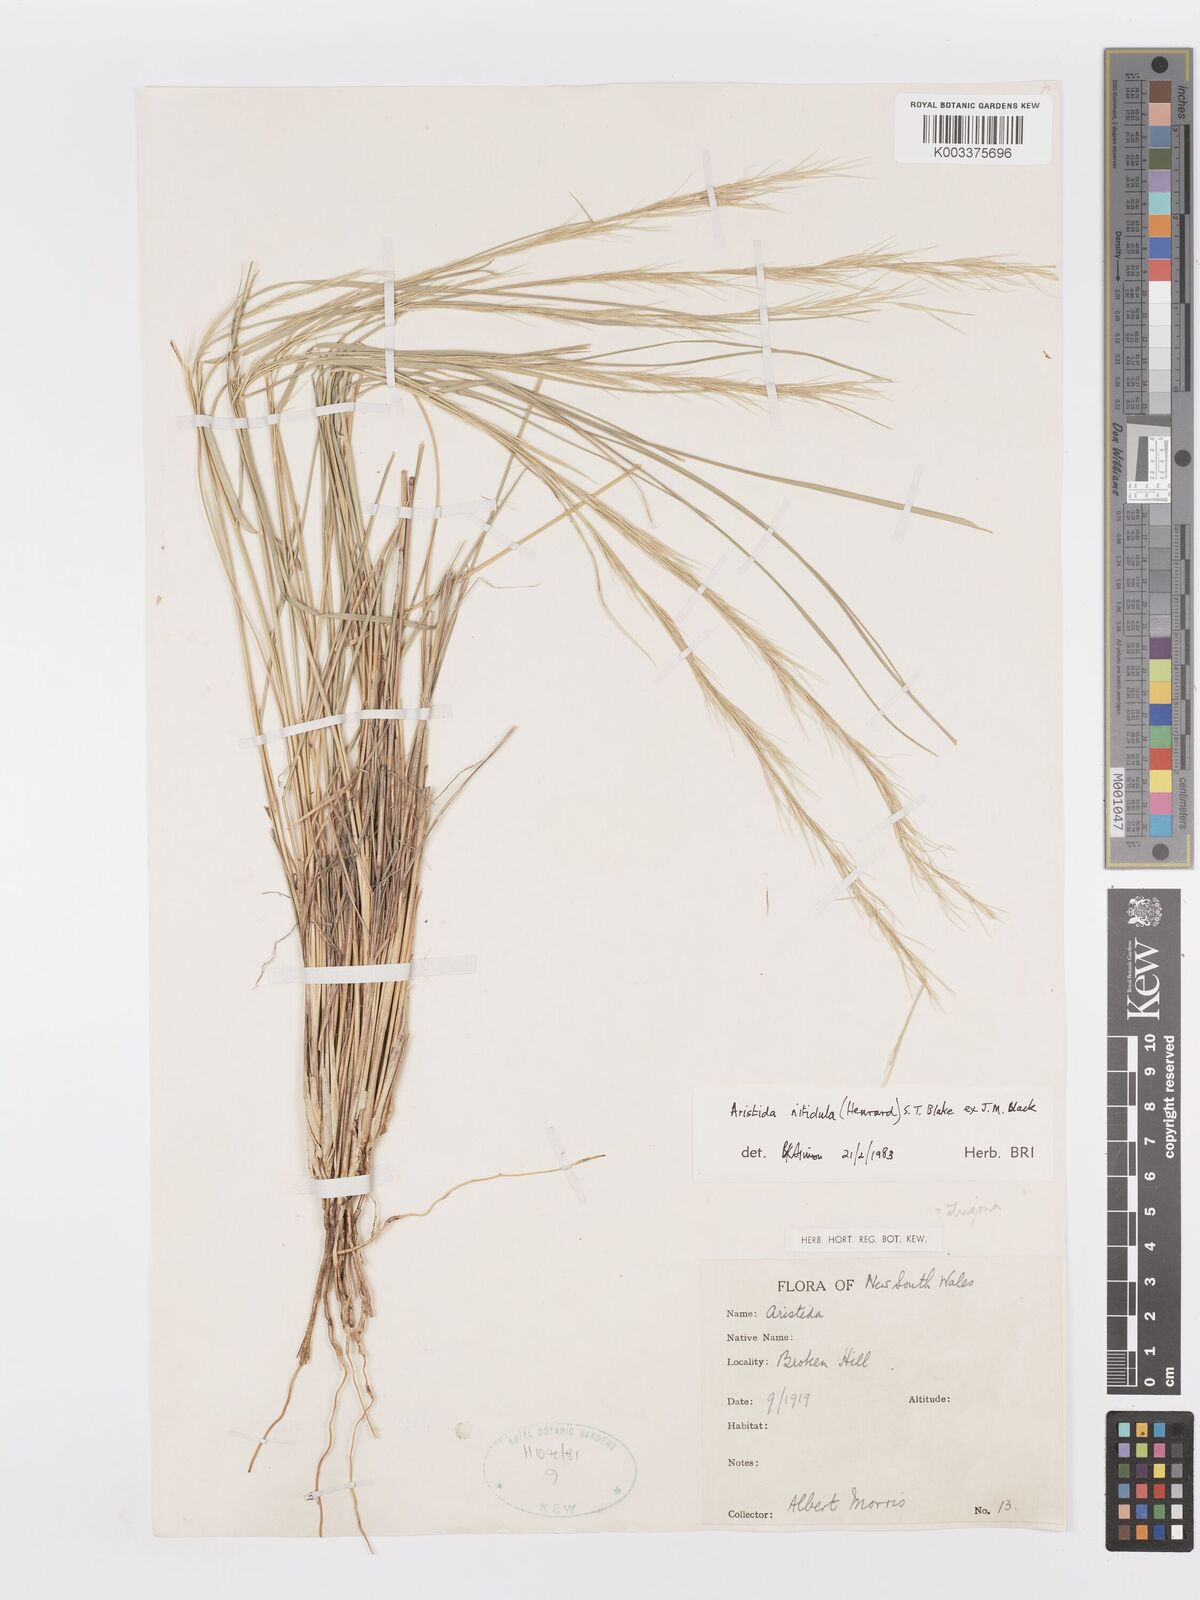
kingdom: Plantae
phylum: Tracheophyta
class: Liliopsida
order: Poales
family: Poaceae
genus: Aristida
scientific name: Aristida nitidula
